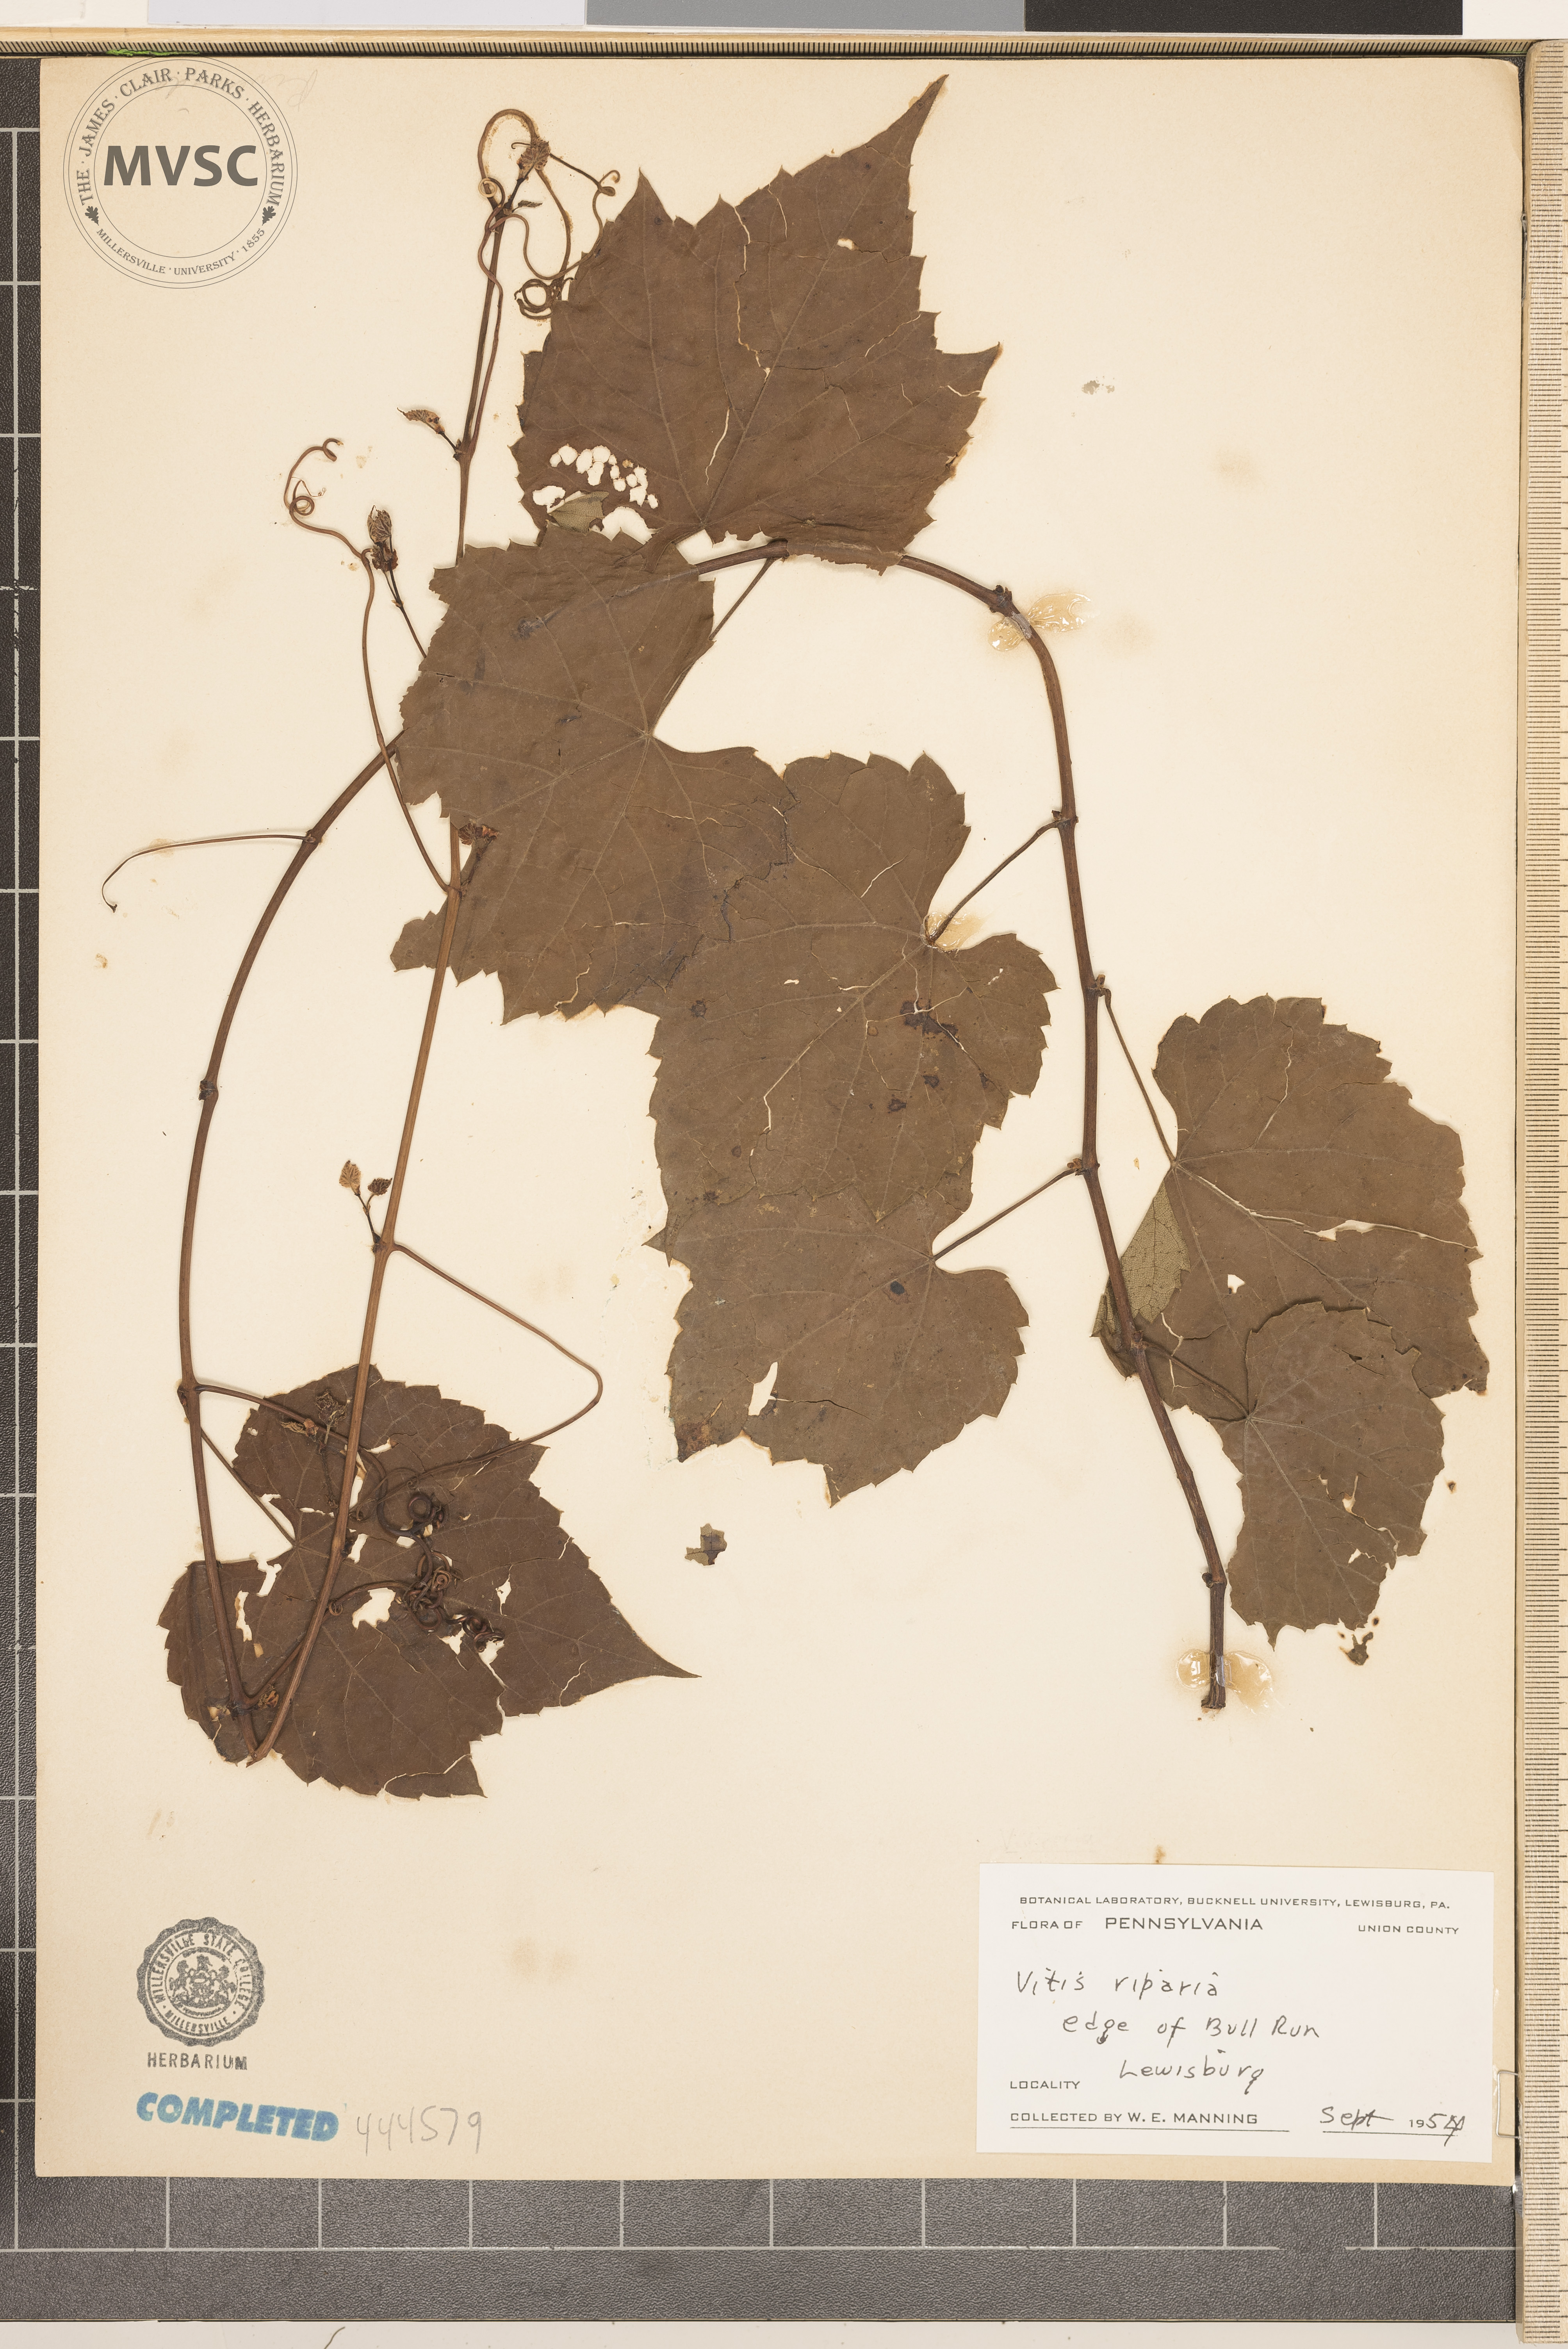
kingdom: Plantae
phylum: Tracheophyta
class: Magnoliopsida
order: Vitales
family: Vitaceae
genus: Vitis
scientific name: Vitis riparia
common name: Frost grape
